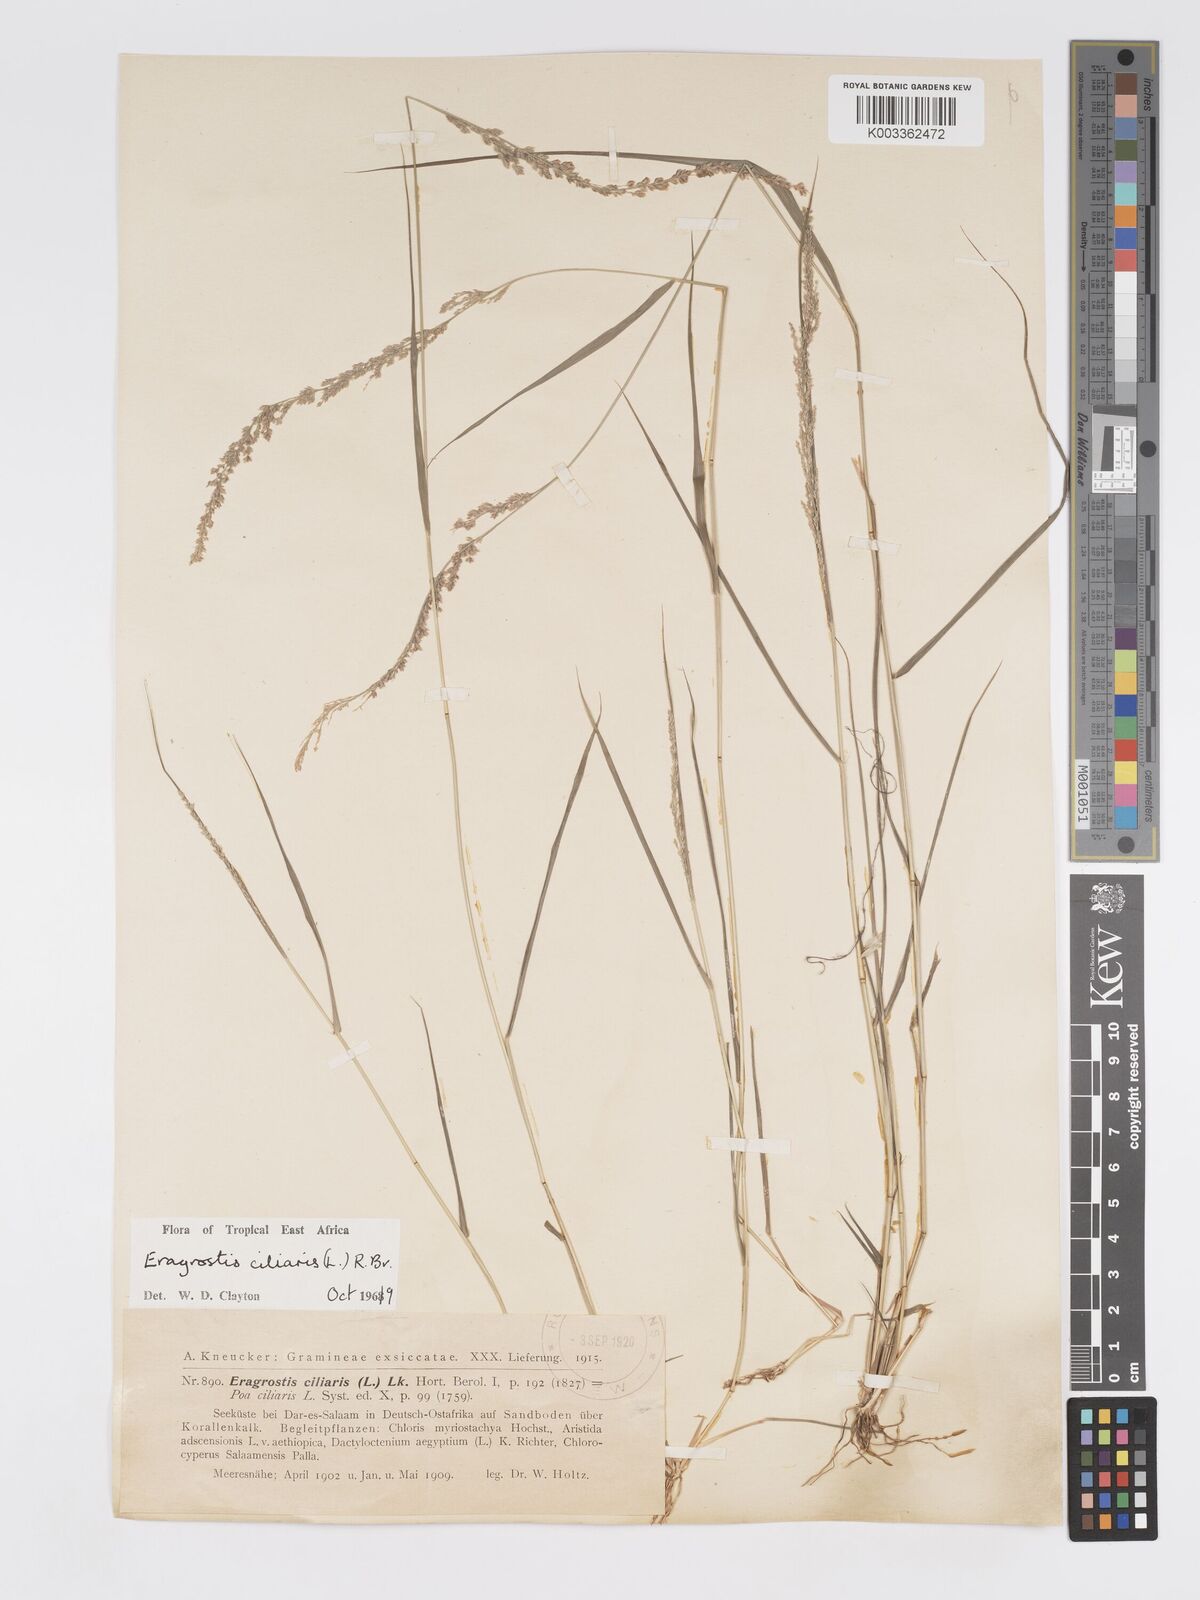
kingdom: Plantae
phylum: Tracheophyta
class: Liliopsida
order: Poales
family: Poaceae
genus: Eragrostis
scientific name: Eragrostis ciliaris
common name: Gophertail lovegrass
